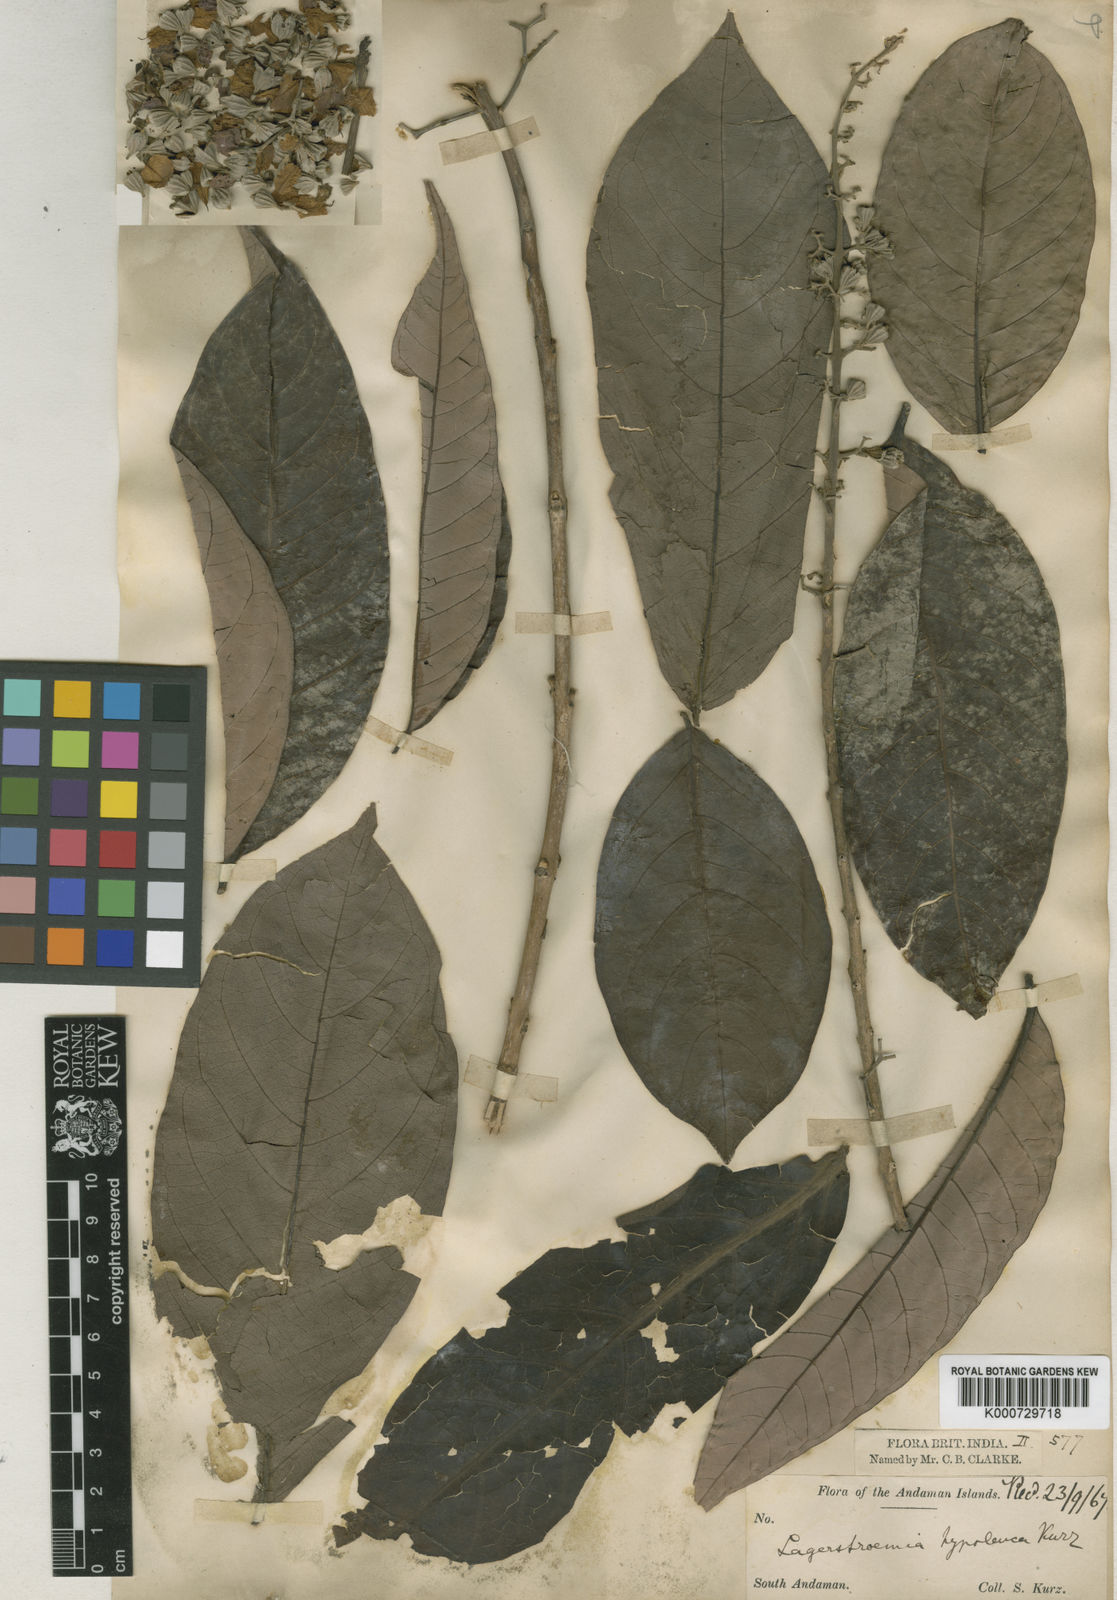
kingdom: Plantae
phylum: Tracheophyta
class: Magnoliopsida
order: Myrtales
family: Lythraceae
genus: Lagerstroemia
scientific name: Lagerstroemia hypoleuca
